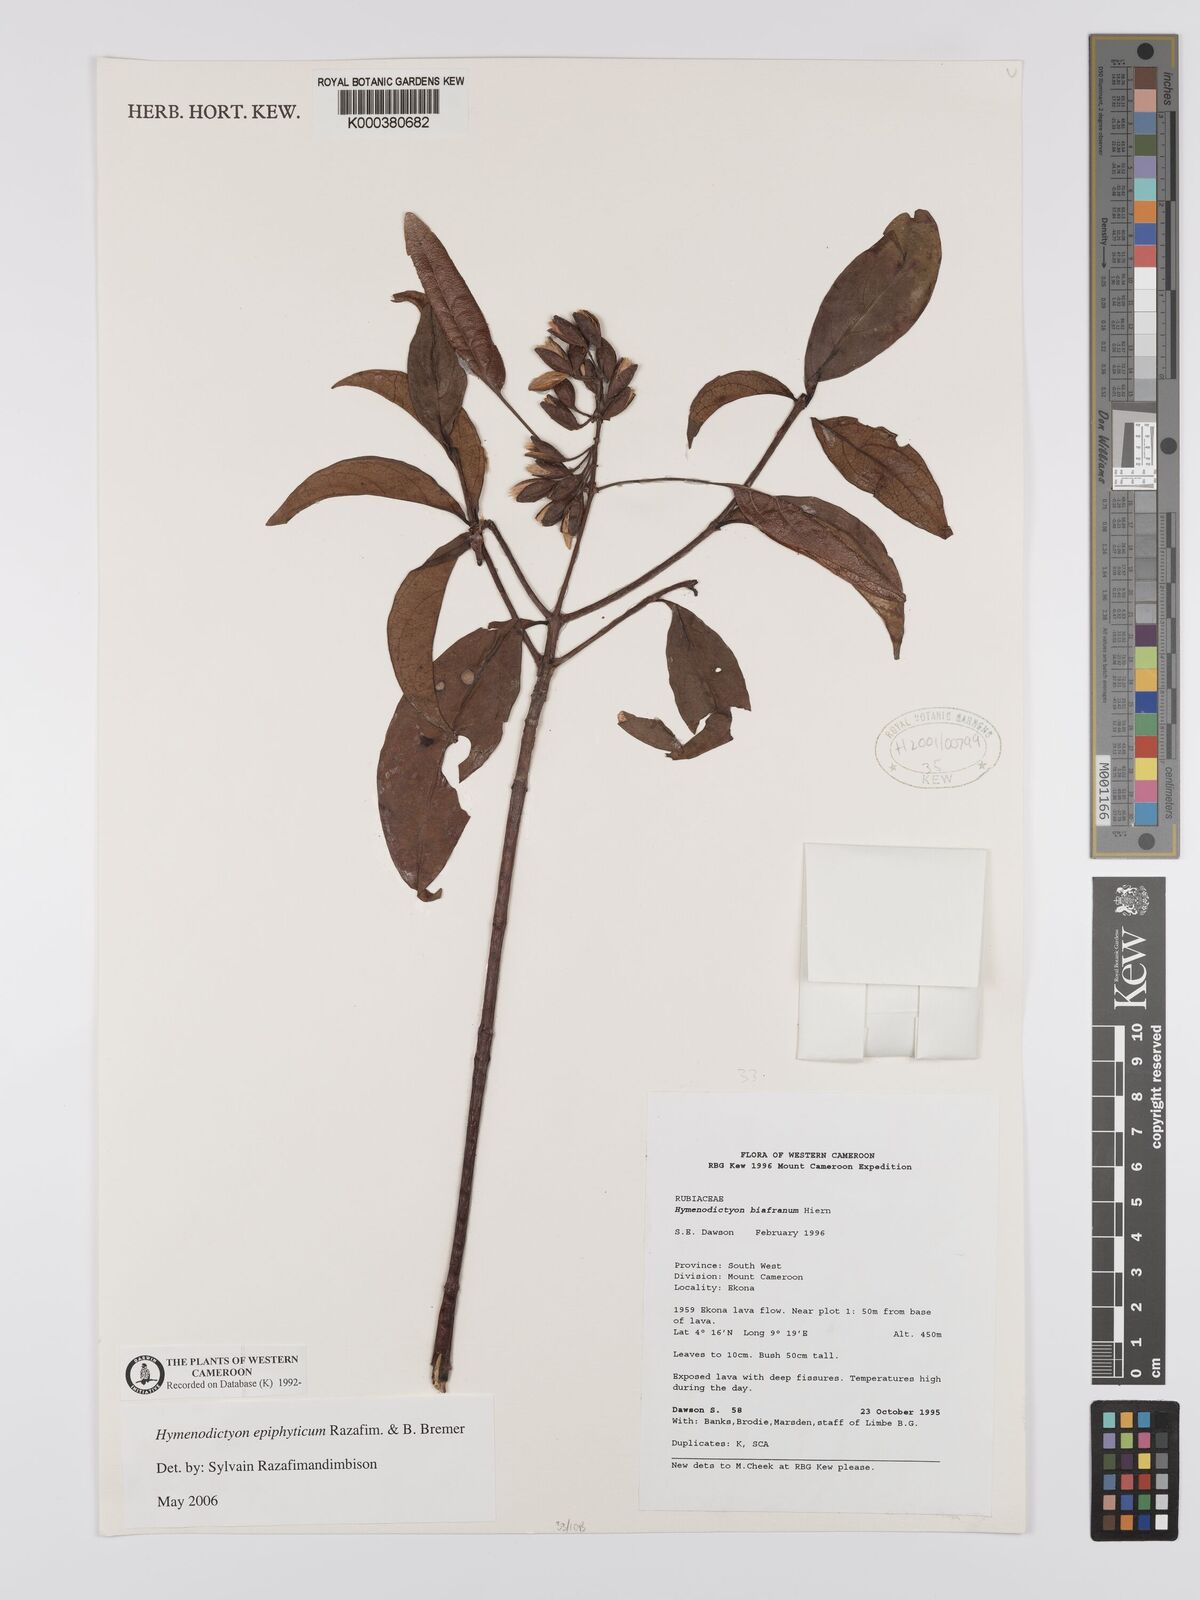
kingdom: Plantae
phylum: Tracheophyta
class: Magnoliopsida
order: Gentianales
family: Rubiaceae
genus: Hymenodictyon
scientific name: Hymenodictyon epiphyticum
